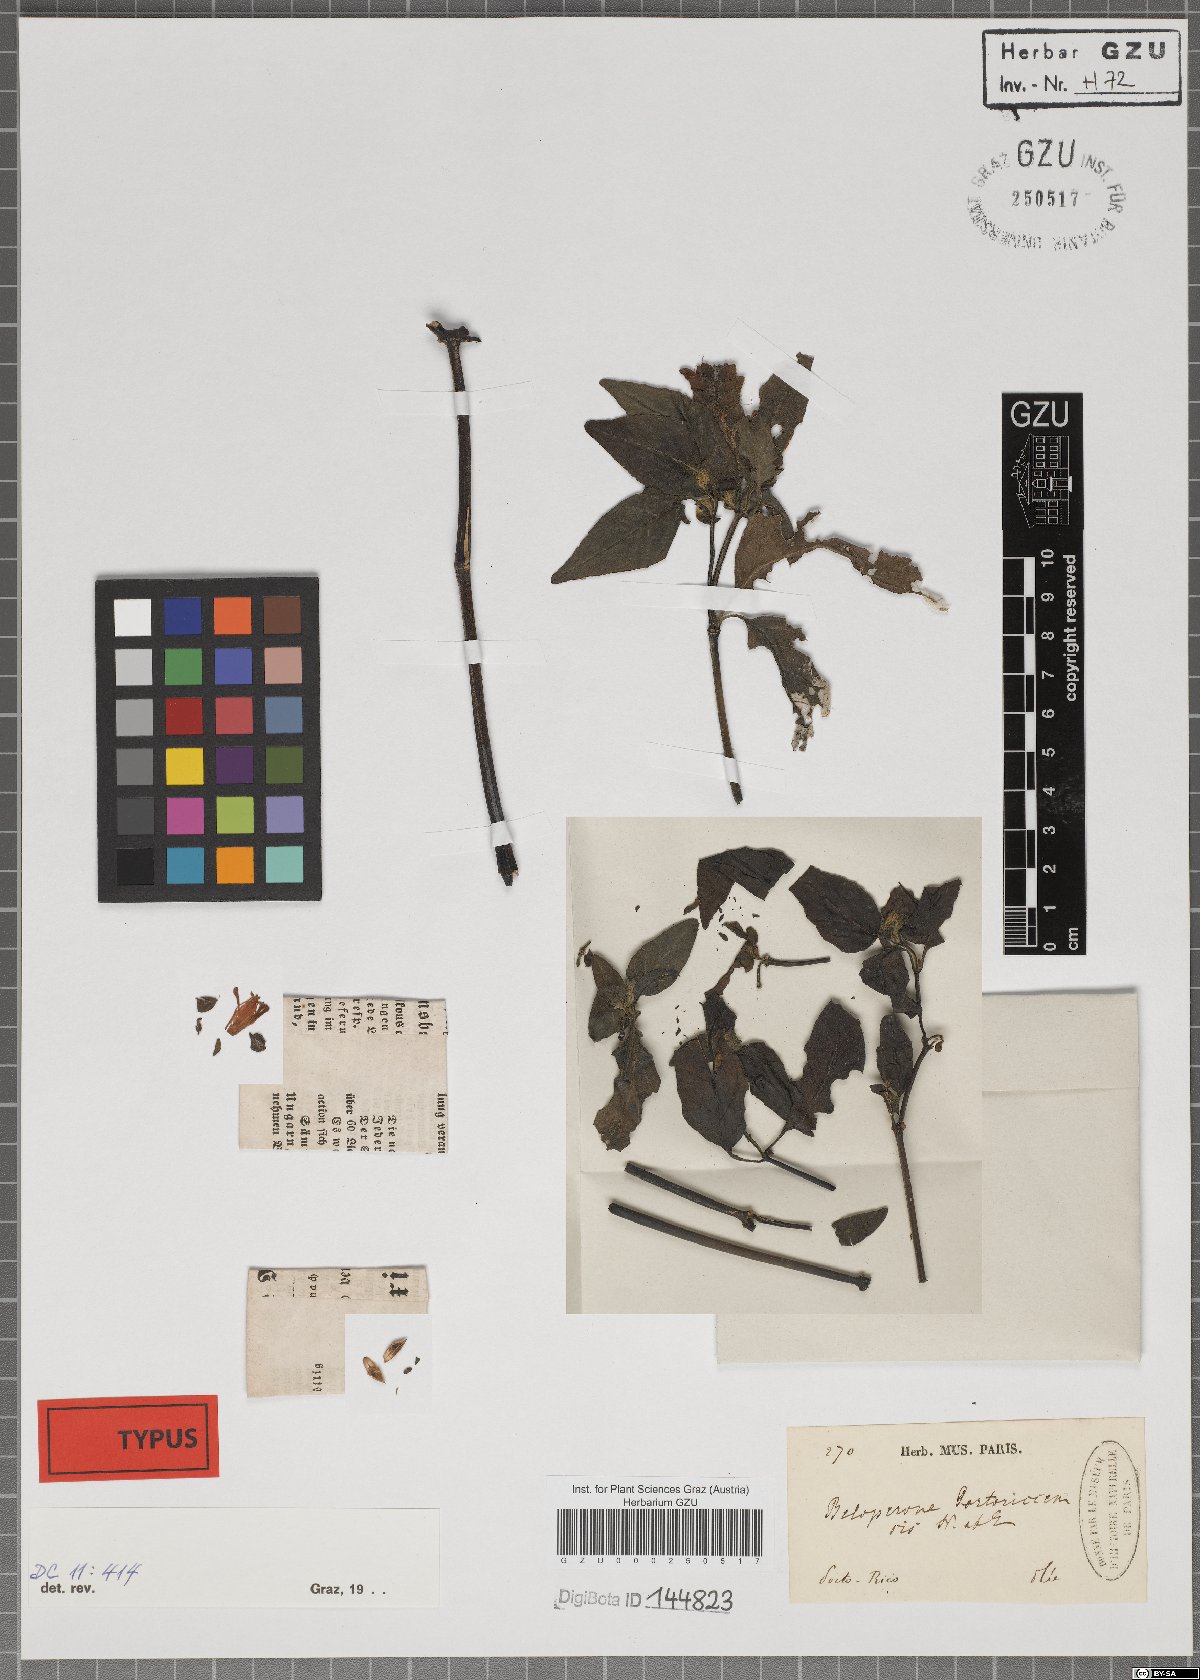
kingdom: Plantae
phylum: Tracheophyta
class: Magnoliopsida
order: Lamiales
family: Acanthaceae
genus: Justicia
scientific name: Justicia mirabiloides
